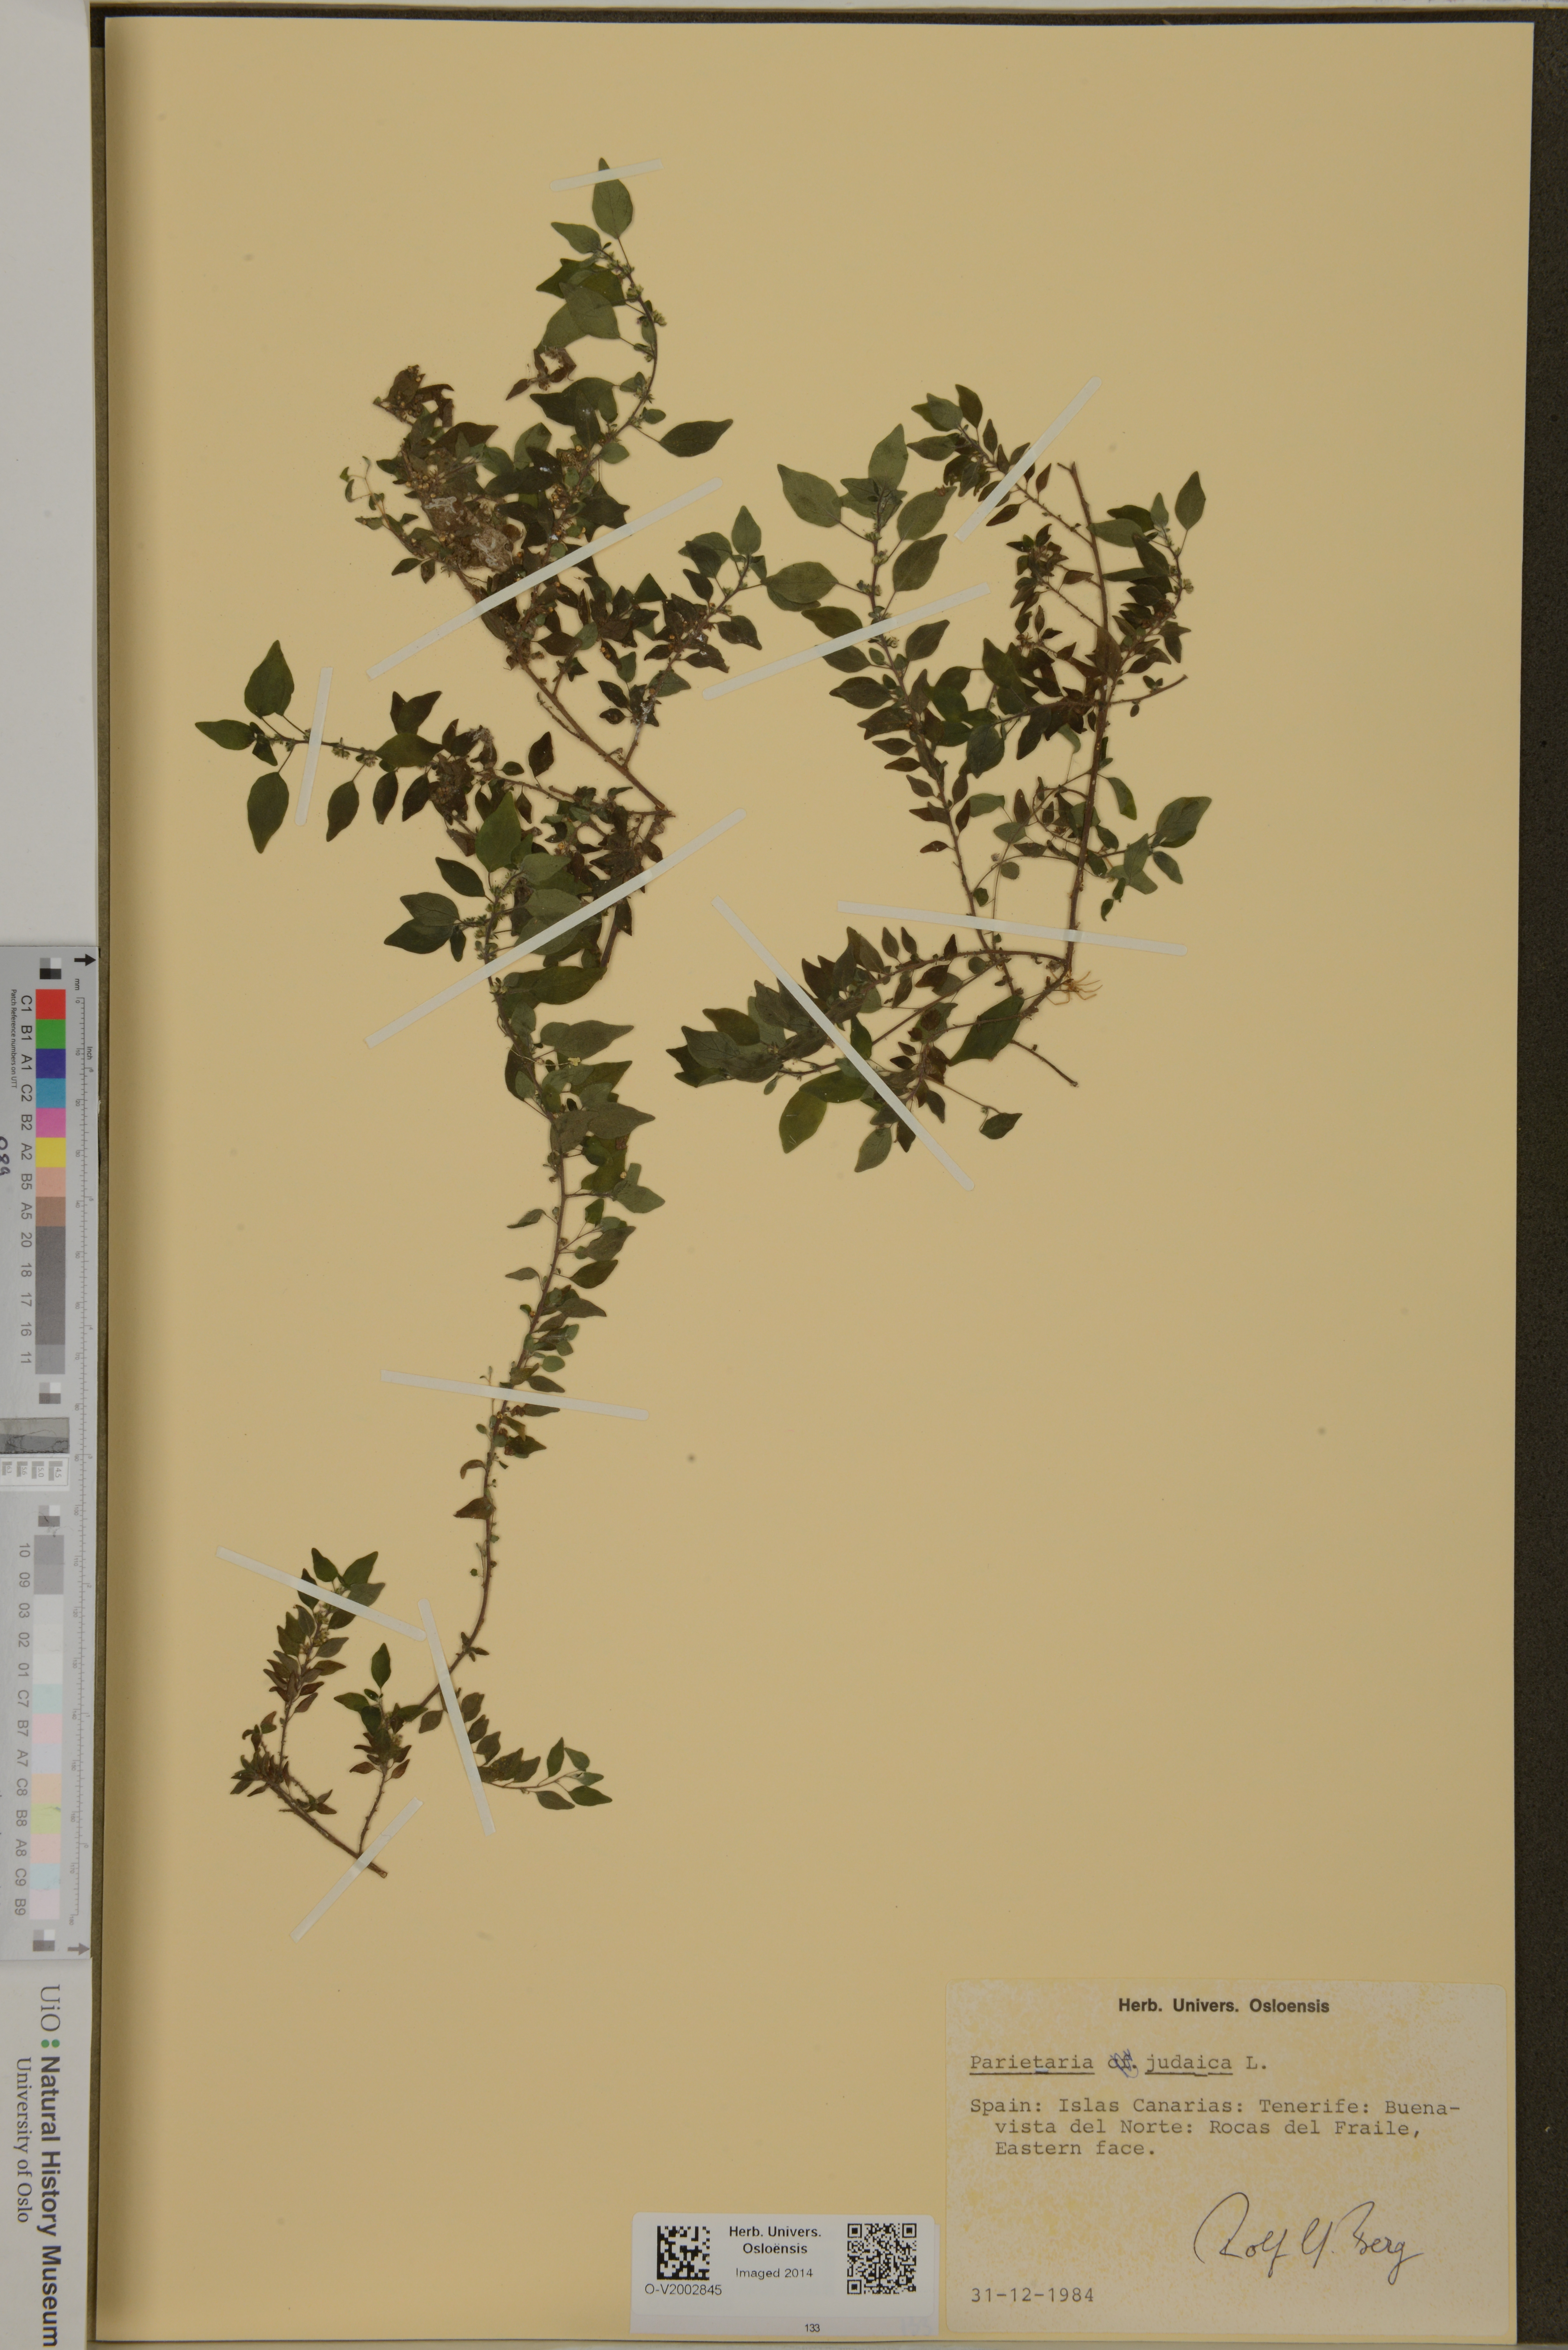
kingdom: Plantae
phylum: Tracheophyta
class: Magnoliopsida
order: Rosales
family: Urticaceae
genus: Parietaria
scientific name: Parietaria judaica
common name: Pellitory-of-the-wall
